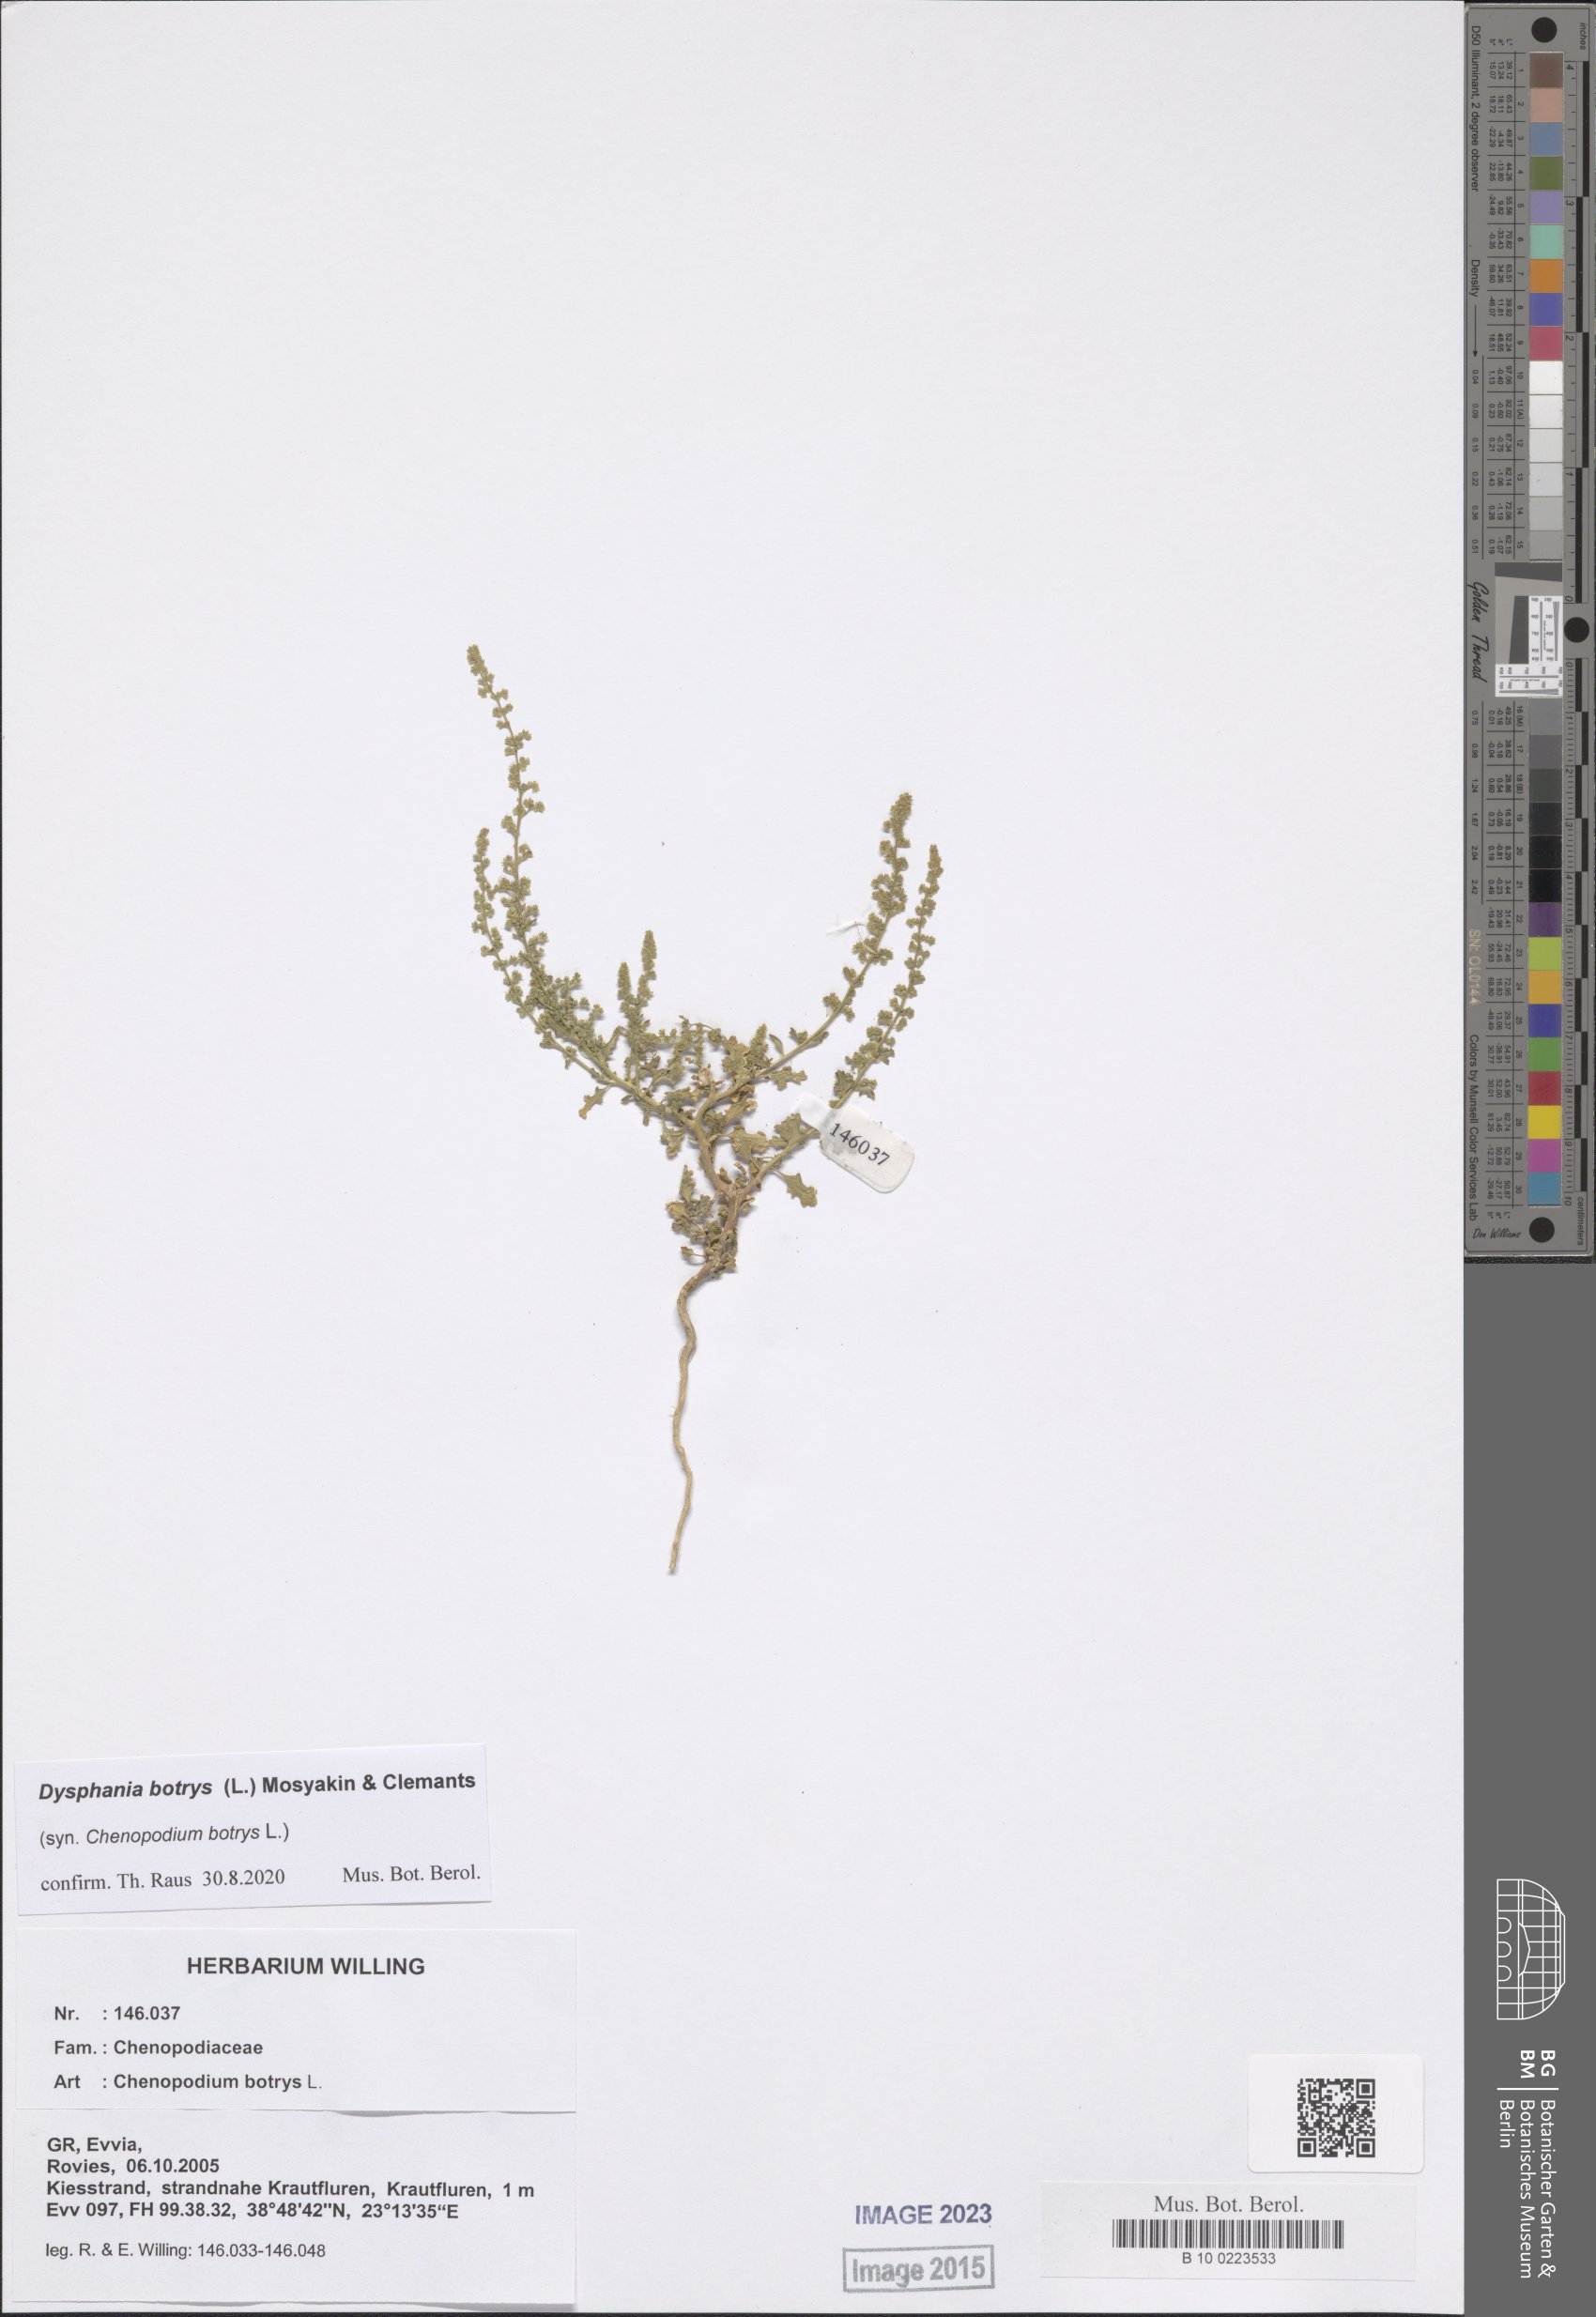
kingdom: Plantae
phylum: Tracheophyta
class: Magnoliopsida
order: Caryophyllales
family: Amaranthaceae
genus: Dysphania
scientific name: Dysphania botrys
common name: Feather-geranium
